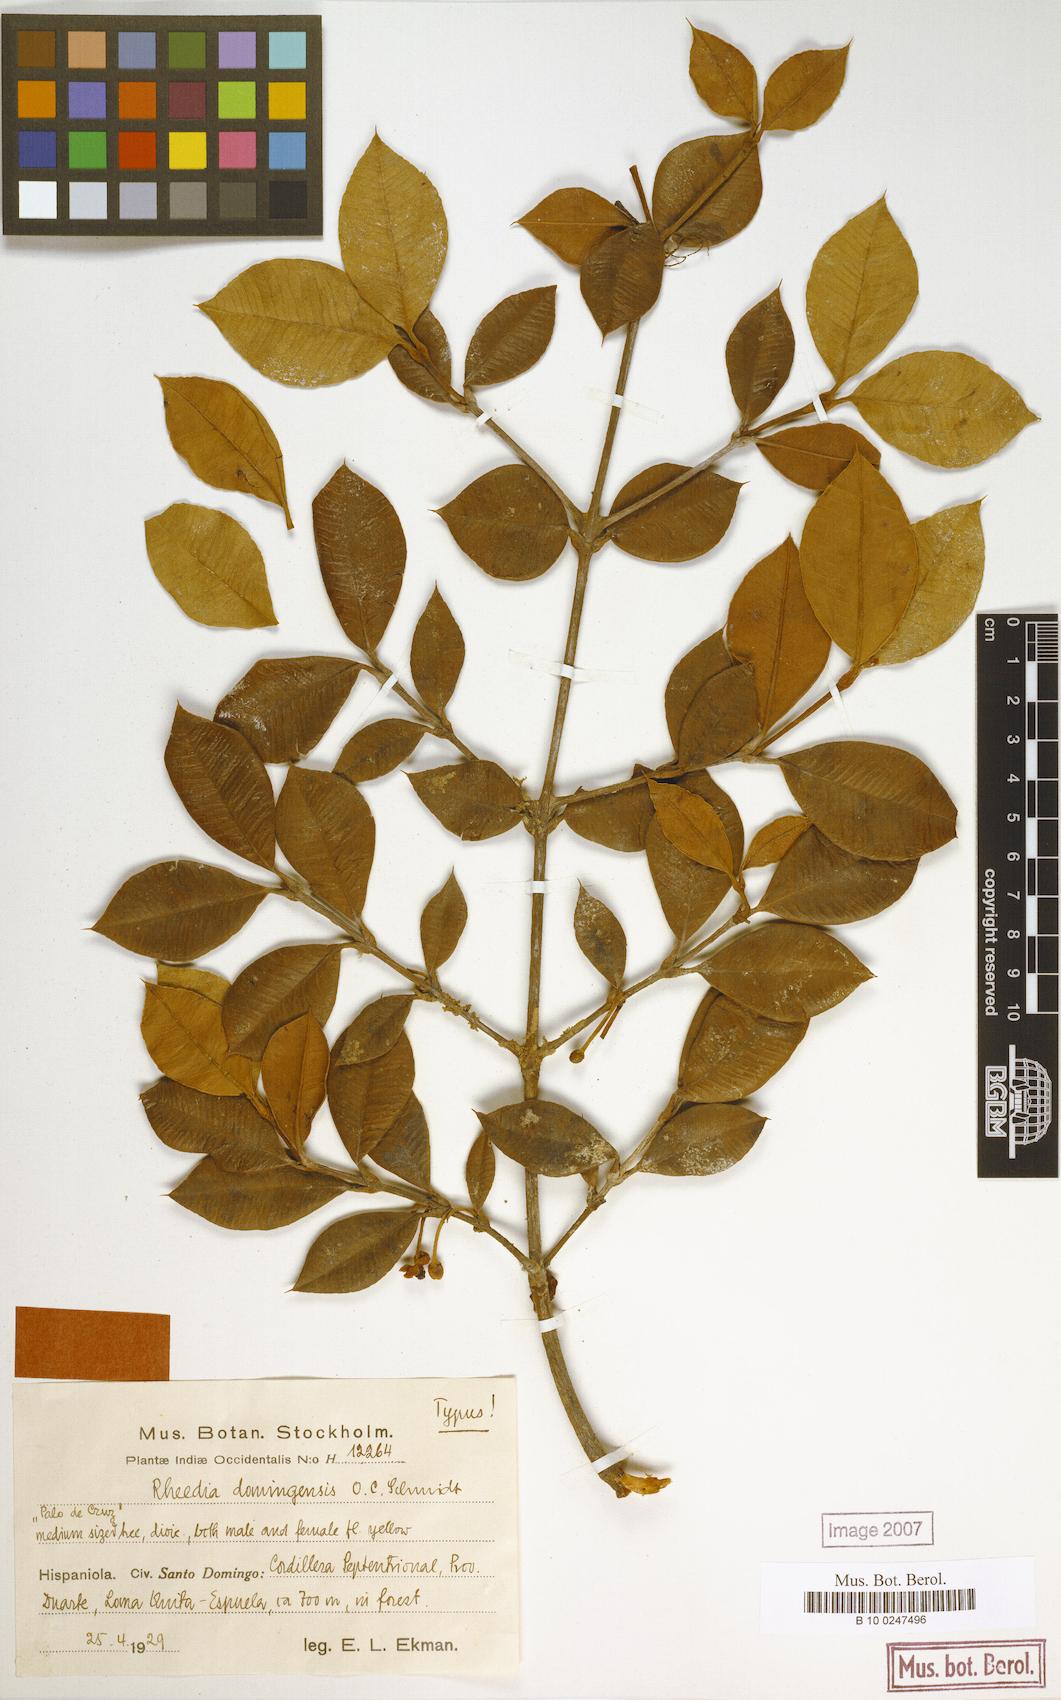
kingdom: Plantae
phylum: Tracheophyta
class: Magnoliopsida
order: Malpighiales
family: Clusiaceae
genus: Garcinia
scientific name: Garcinia
